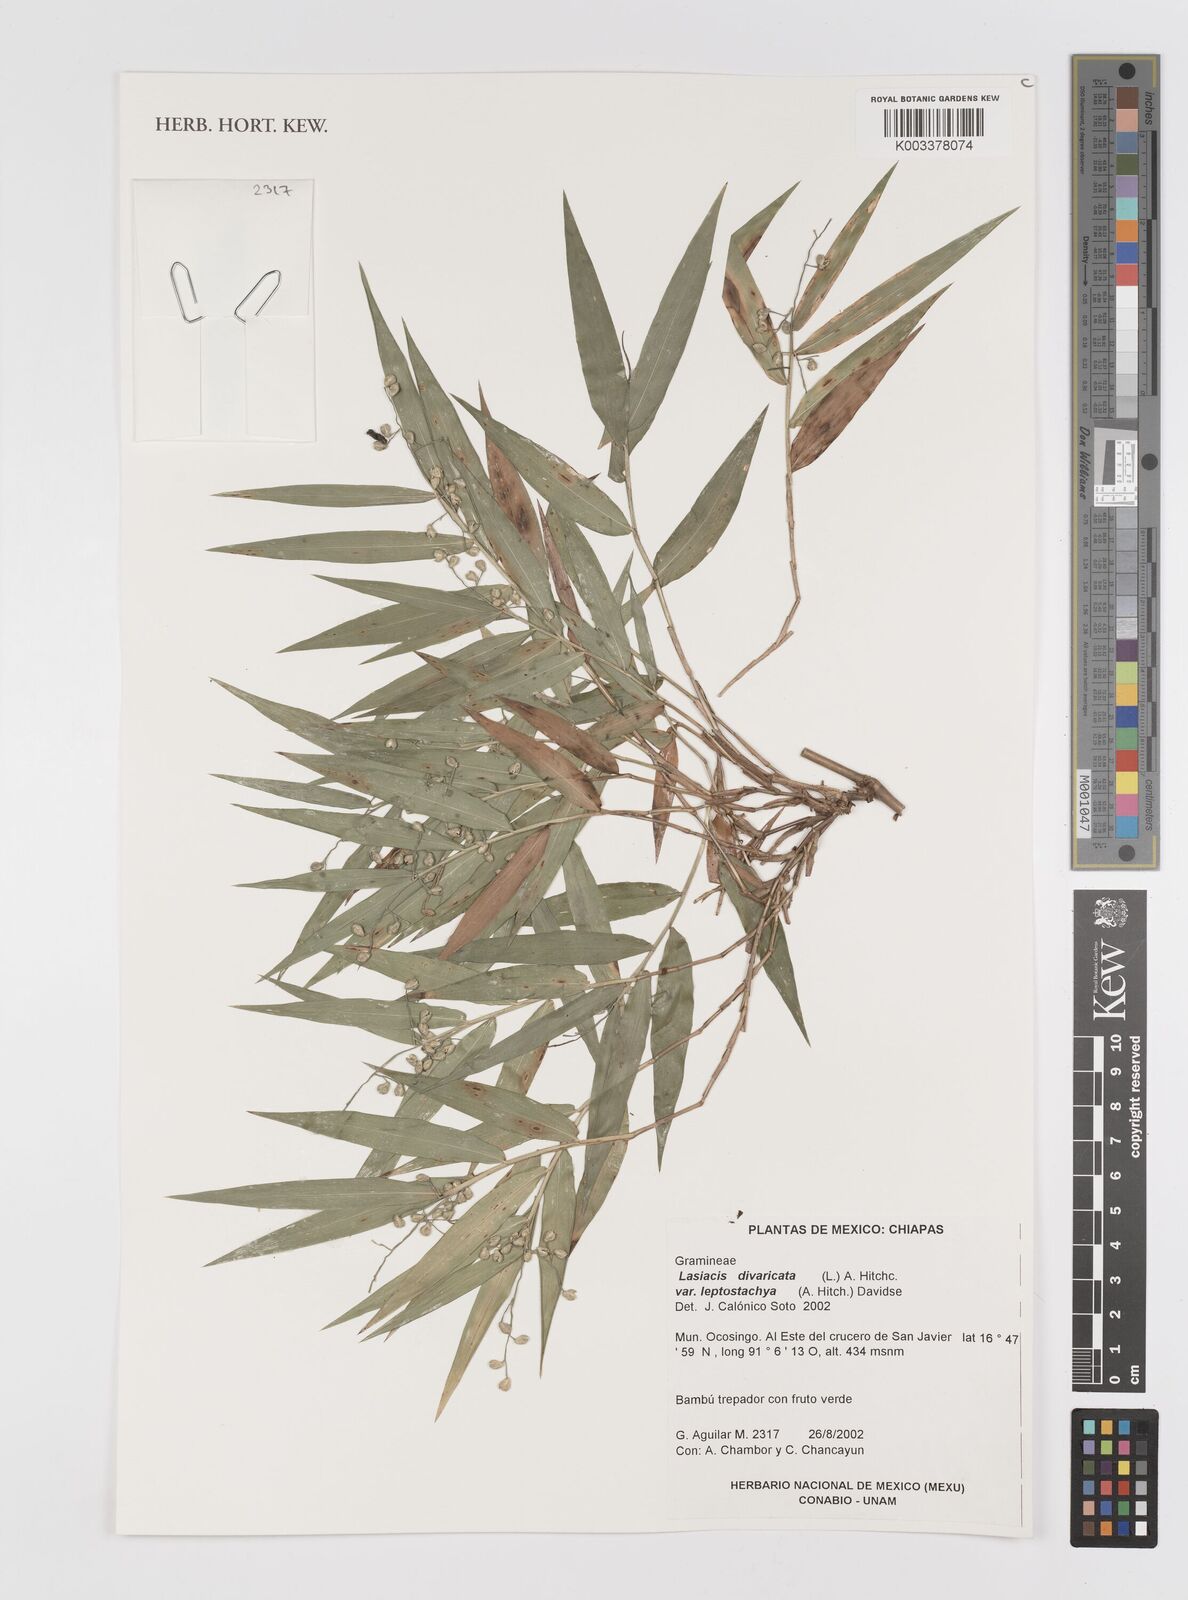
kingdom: Plantae
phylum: Tracheophyta
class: Liliopsida
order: Poales
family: Poaceae
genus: Lasiacis
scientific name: Lasiacis divaricata
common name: Smallcane
